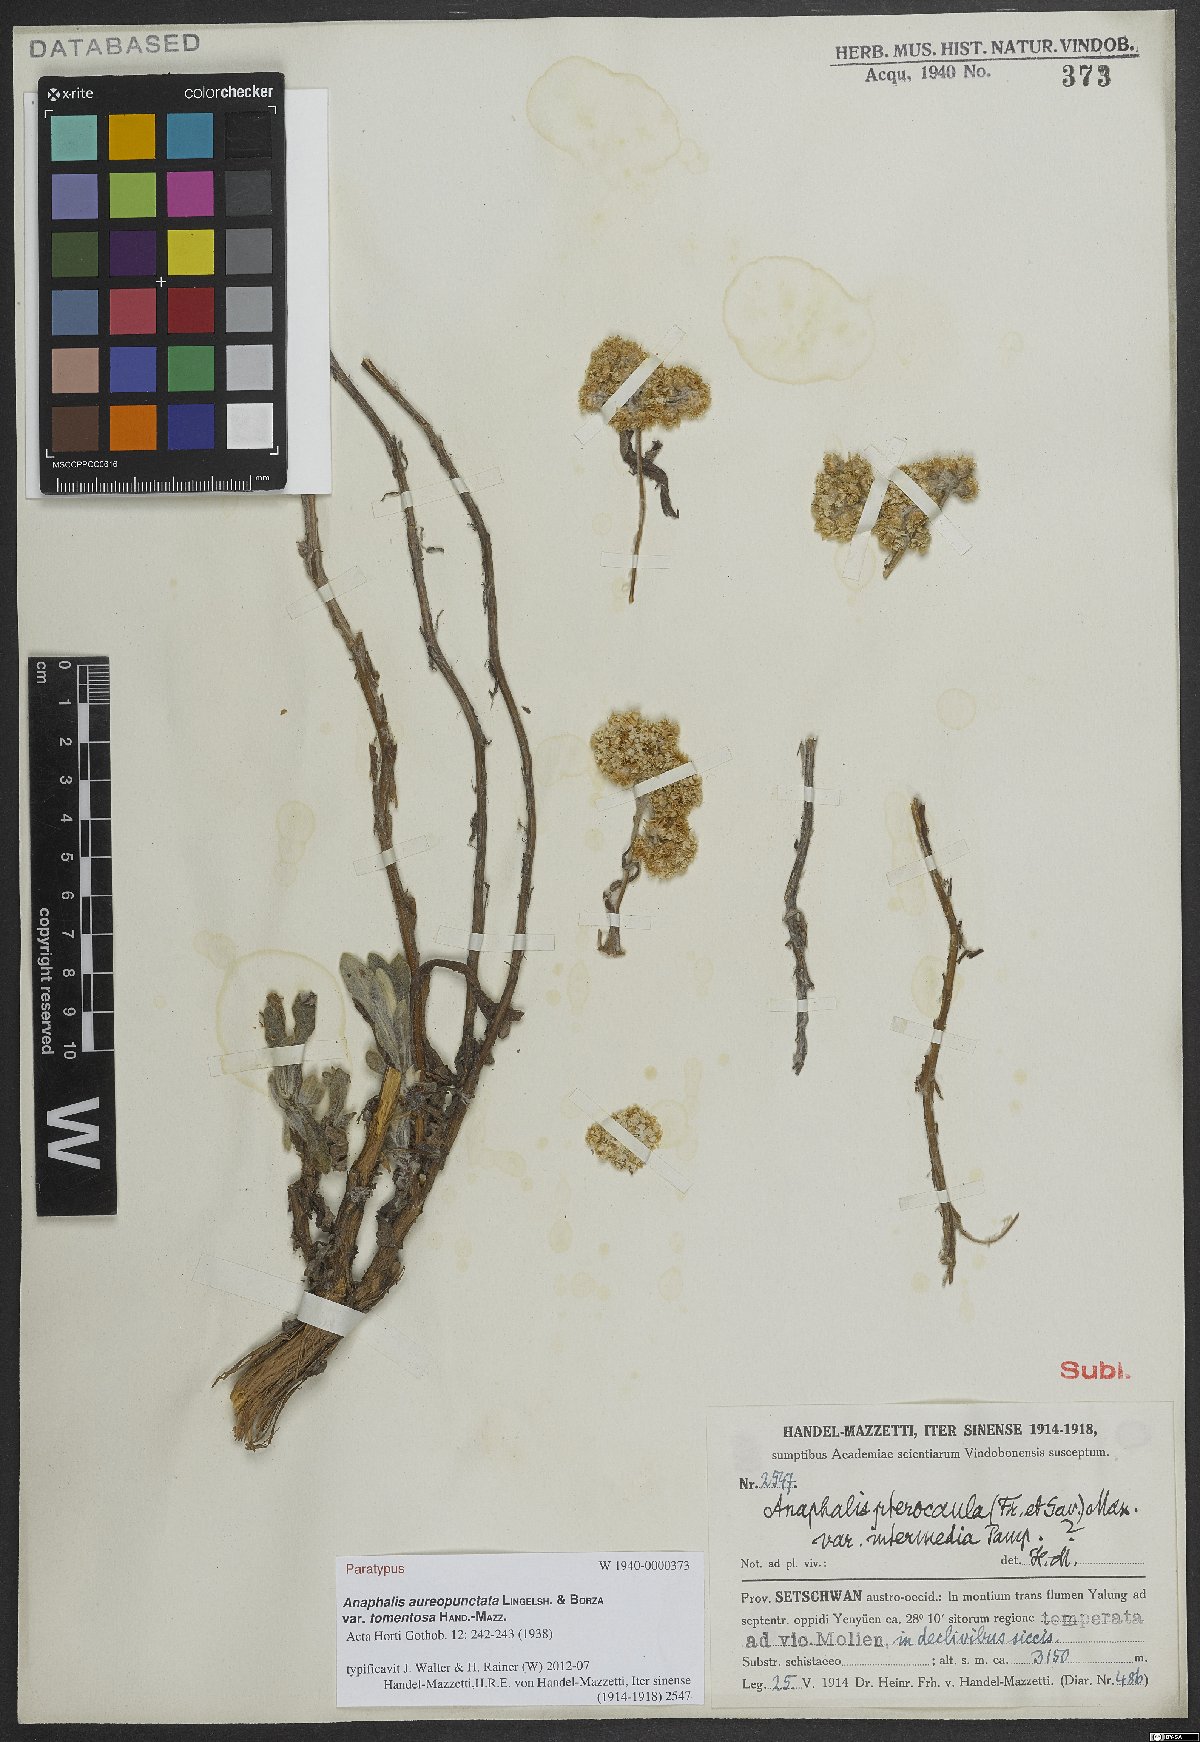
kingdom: Plantae
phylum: Tracheophyta
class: Magnoliopsida
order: Asterales
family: Asteraceae
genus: Anaphalis
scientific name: Anaphalis aureopunctata
